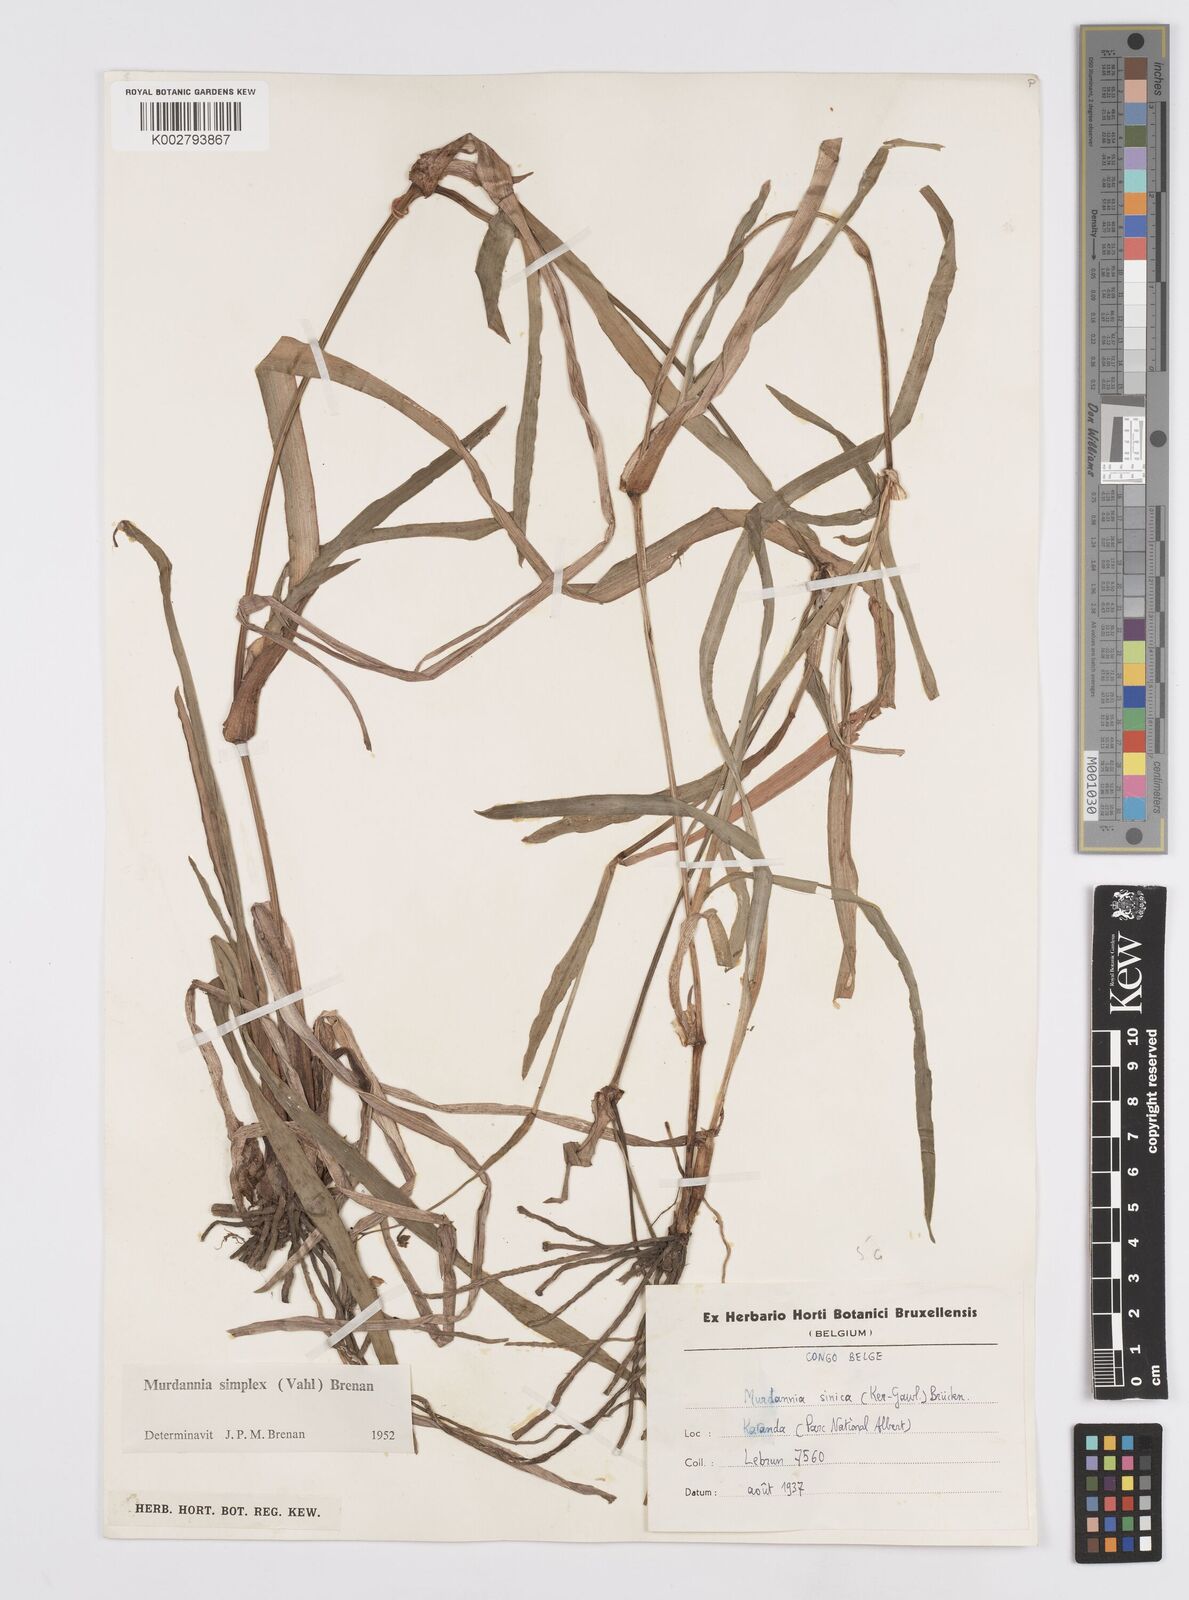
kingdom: Plantae
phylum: Tracheophyta
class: Liliopsida
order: Commelinales
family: Commelinaceae
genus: Murdannia
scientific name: Murdannia simplex
